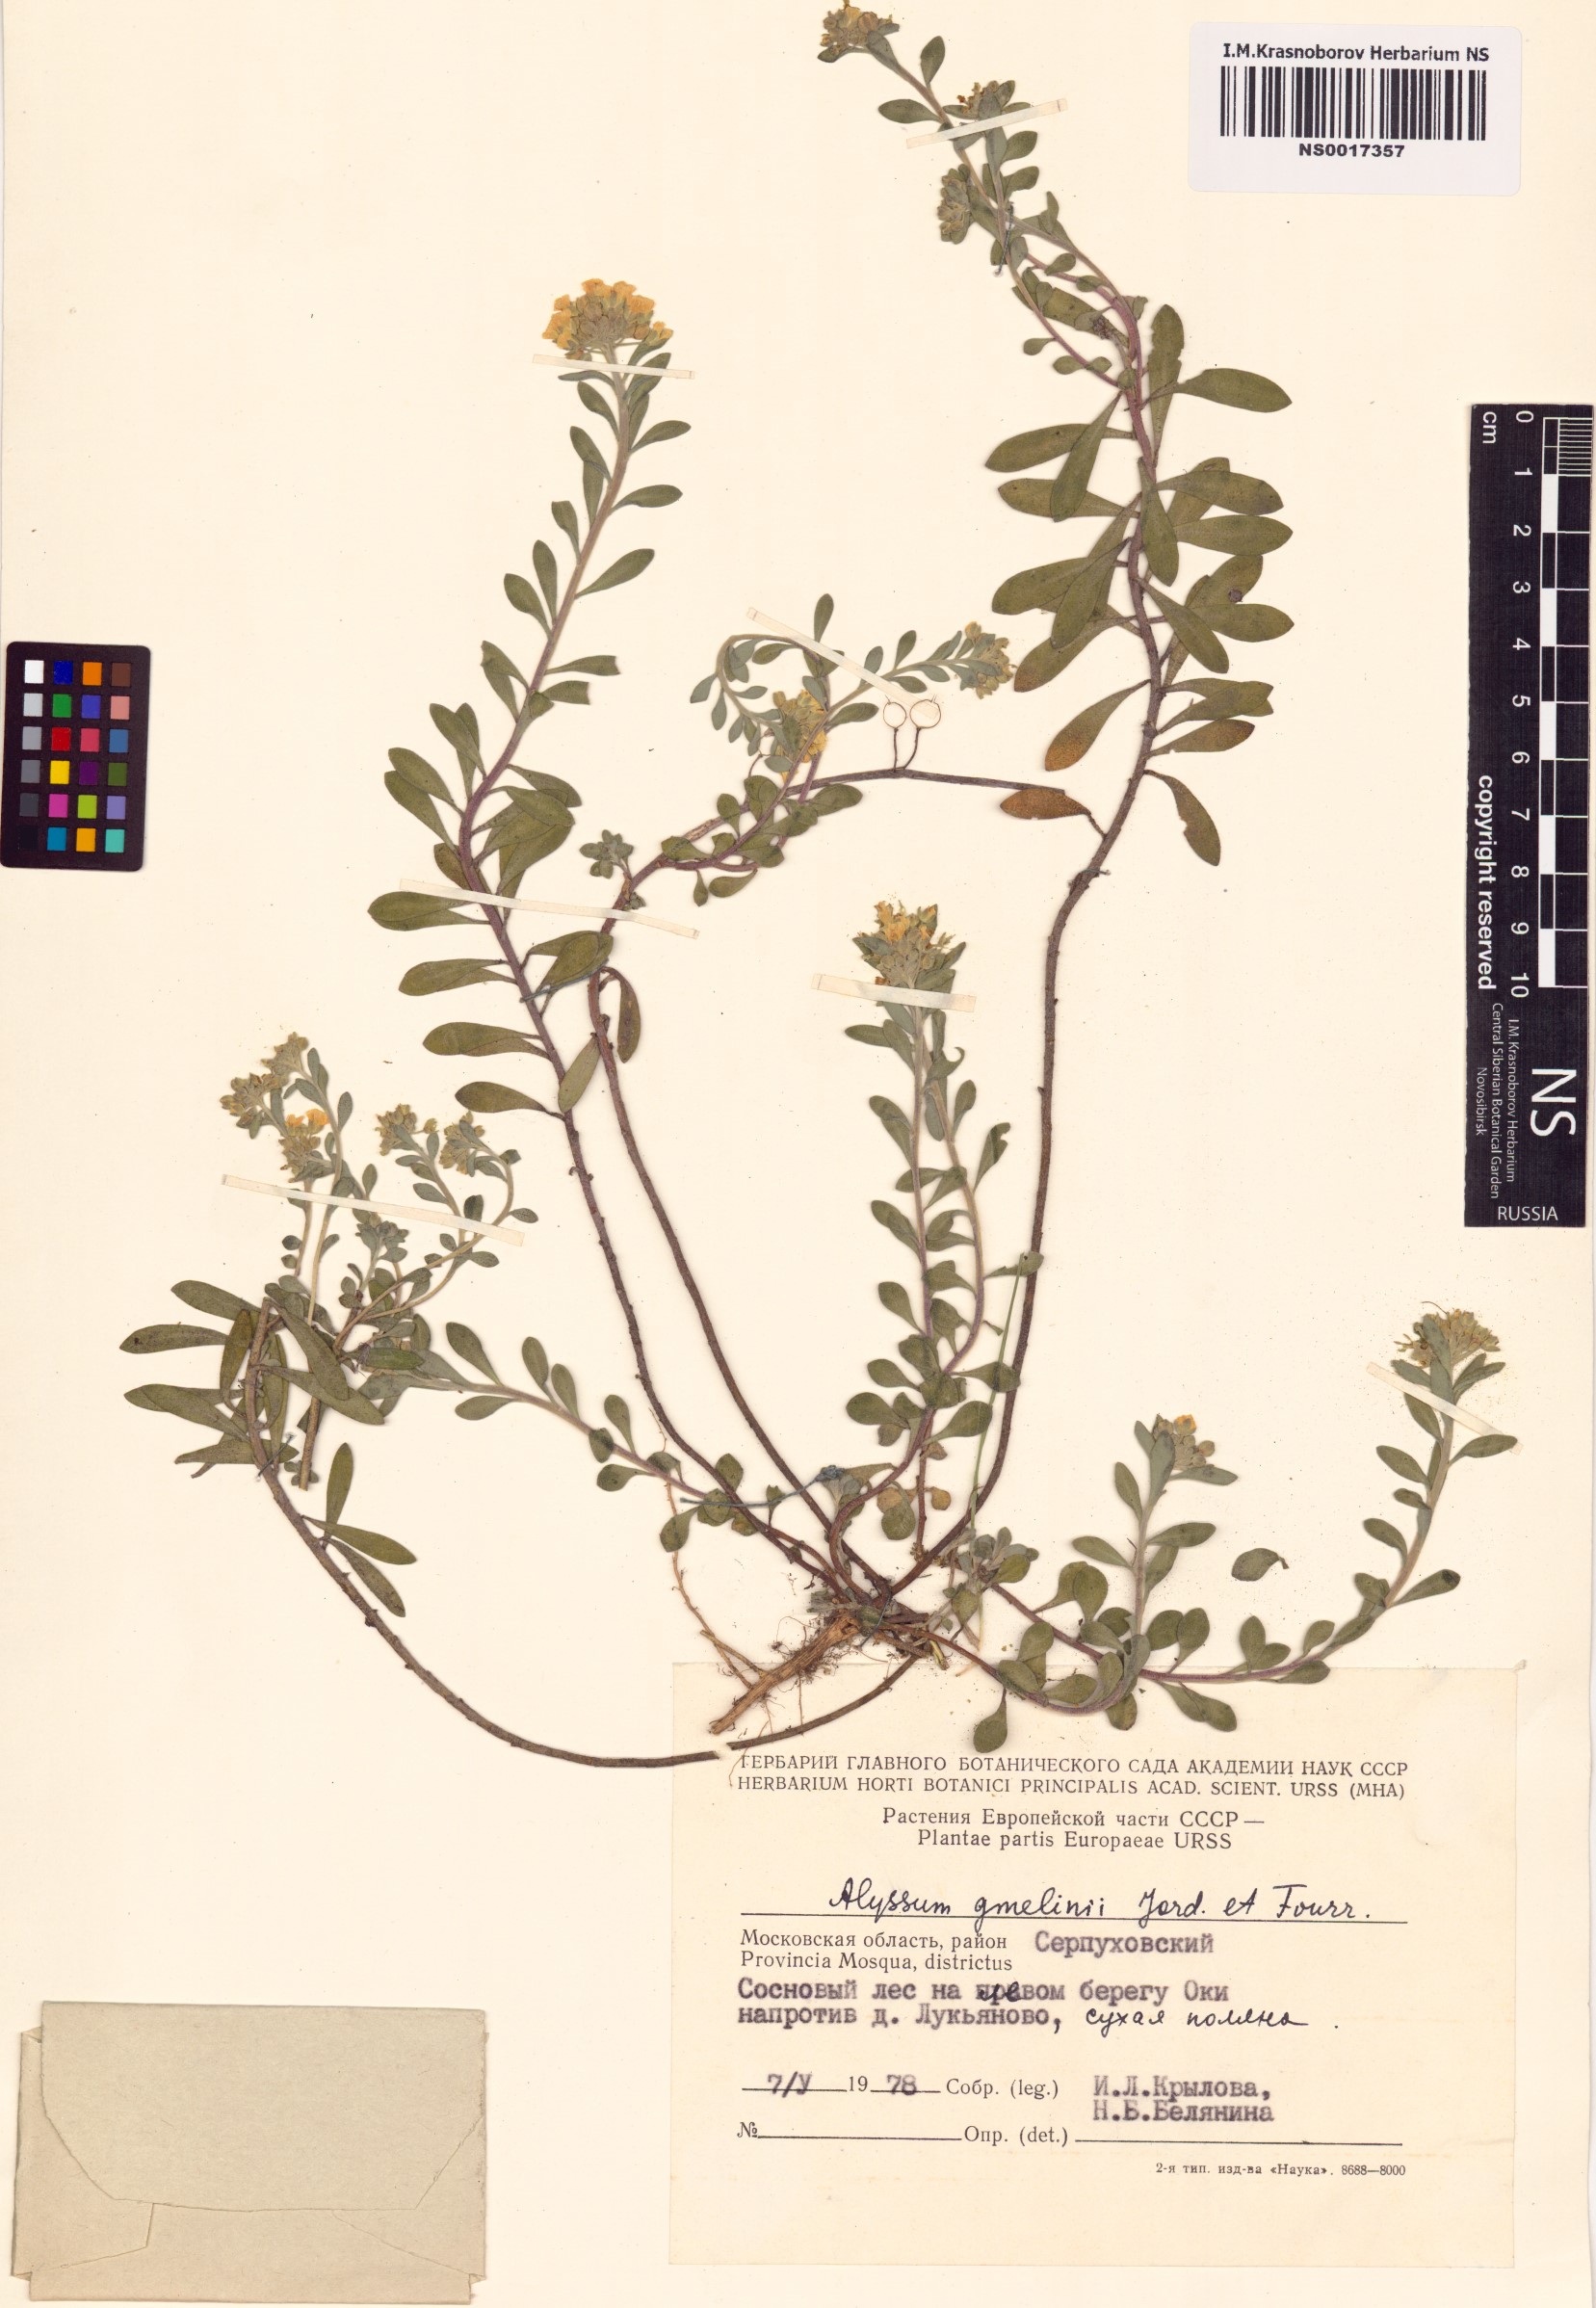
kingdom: Plantae
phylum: Tracheophyta
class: Magnoliopsida
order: Brassicales
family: Brassicaceae
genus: Alyssum
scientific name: Alyssum gmelinii
